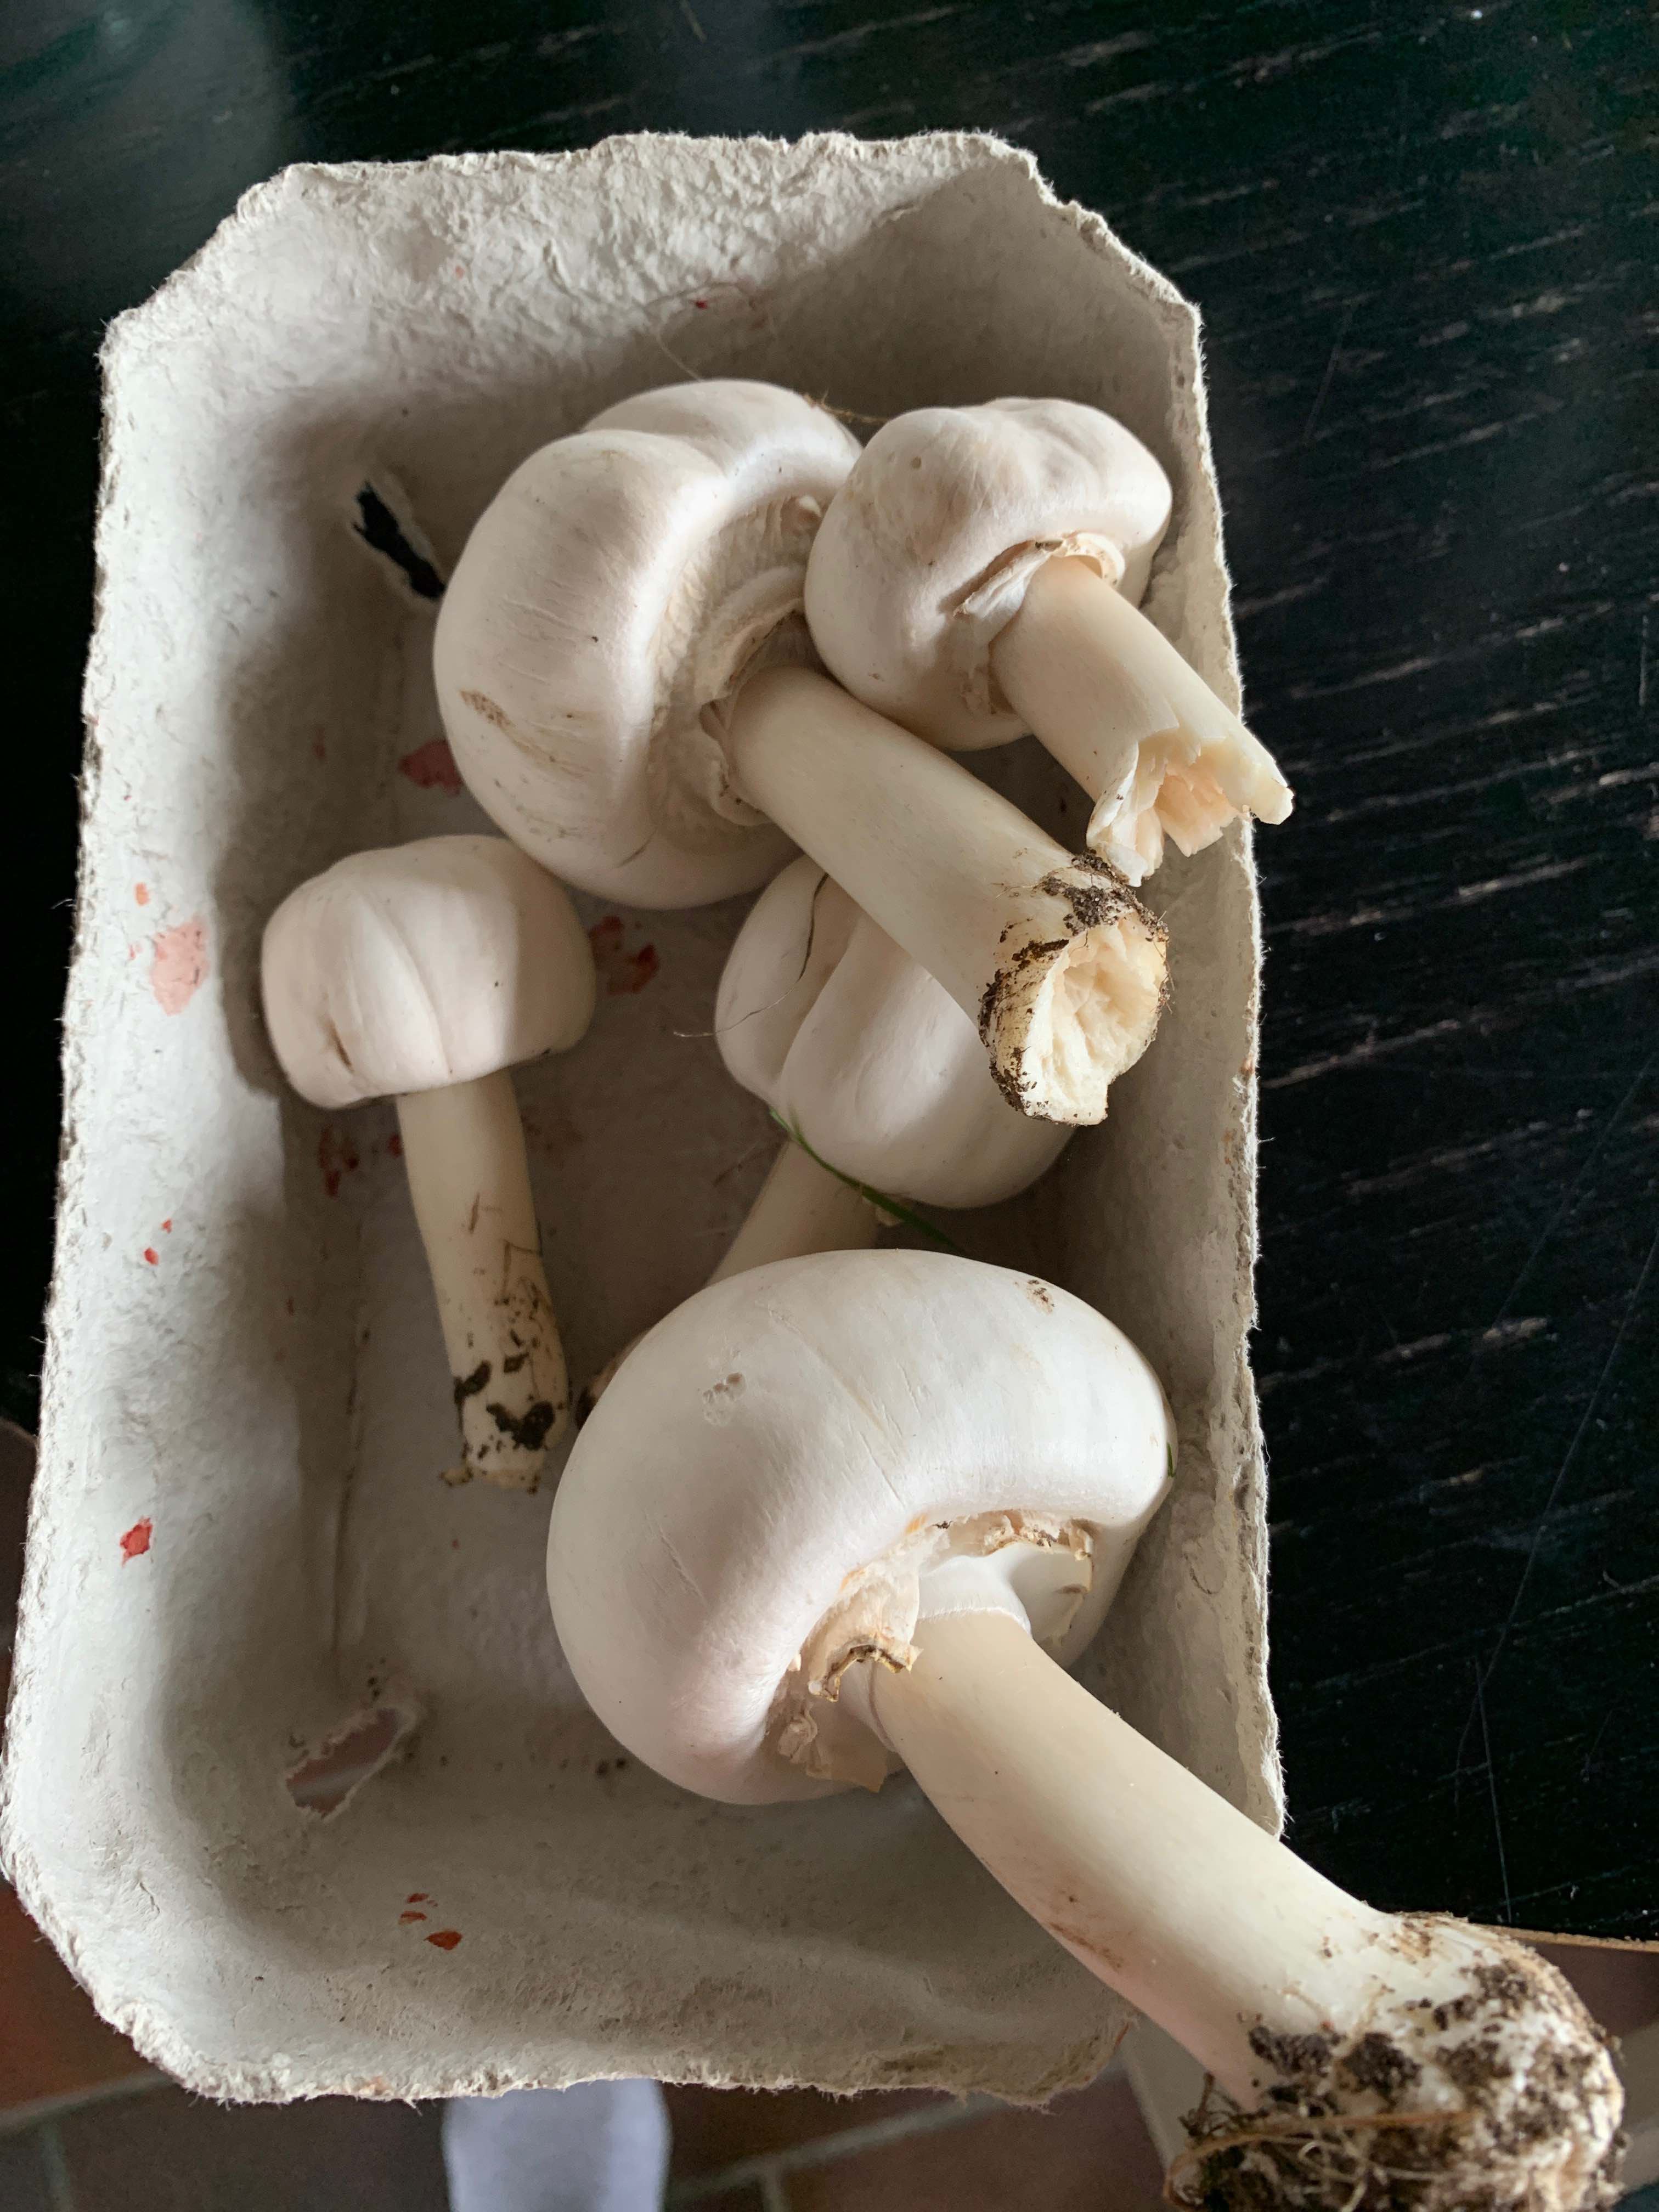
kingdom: Fungi
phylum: Basidiomycota
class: Agaricomycetes
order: Agaricales
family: Agaricaceae
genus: Agaricus
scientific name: Agaricus
